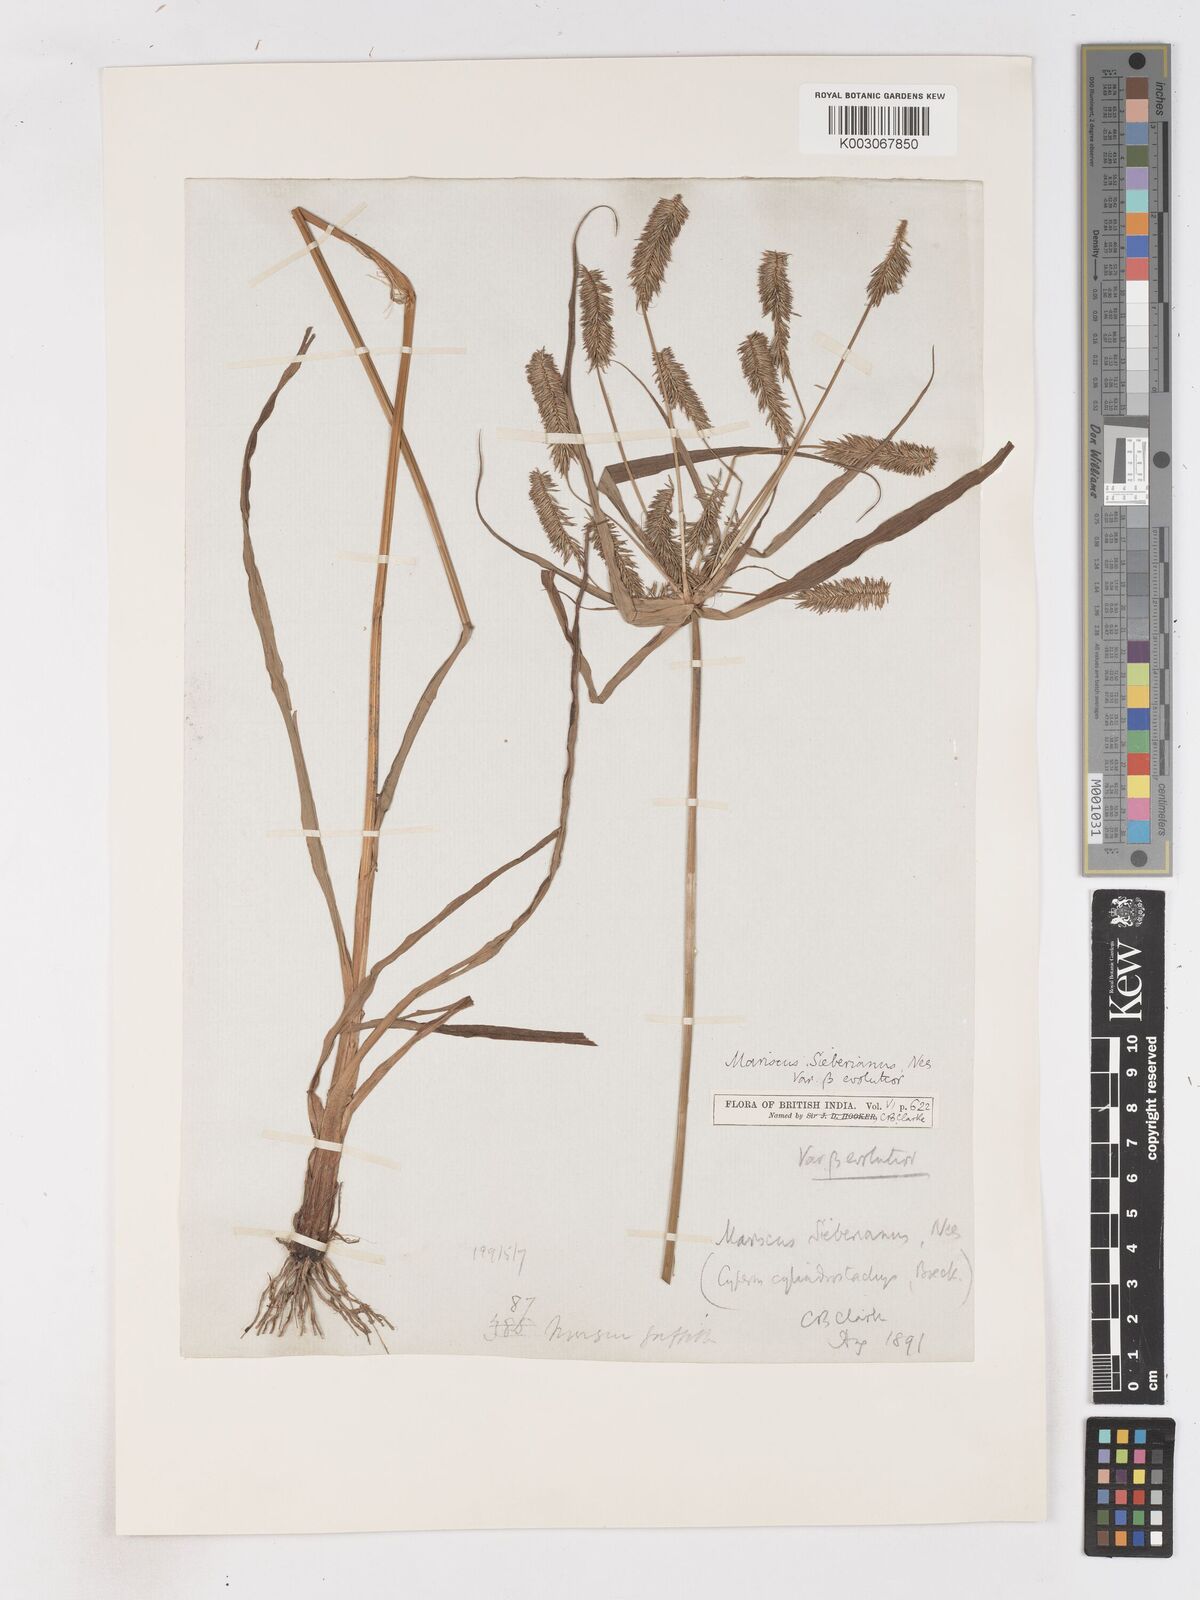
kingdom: Plantae
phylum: Tracheophyta
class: Liliopsida
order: Poales
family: Cyperaceae
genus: Cyperus
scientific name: Cyperus cyperoides
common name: Pacific island flat sedge
